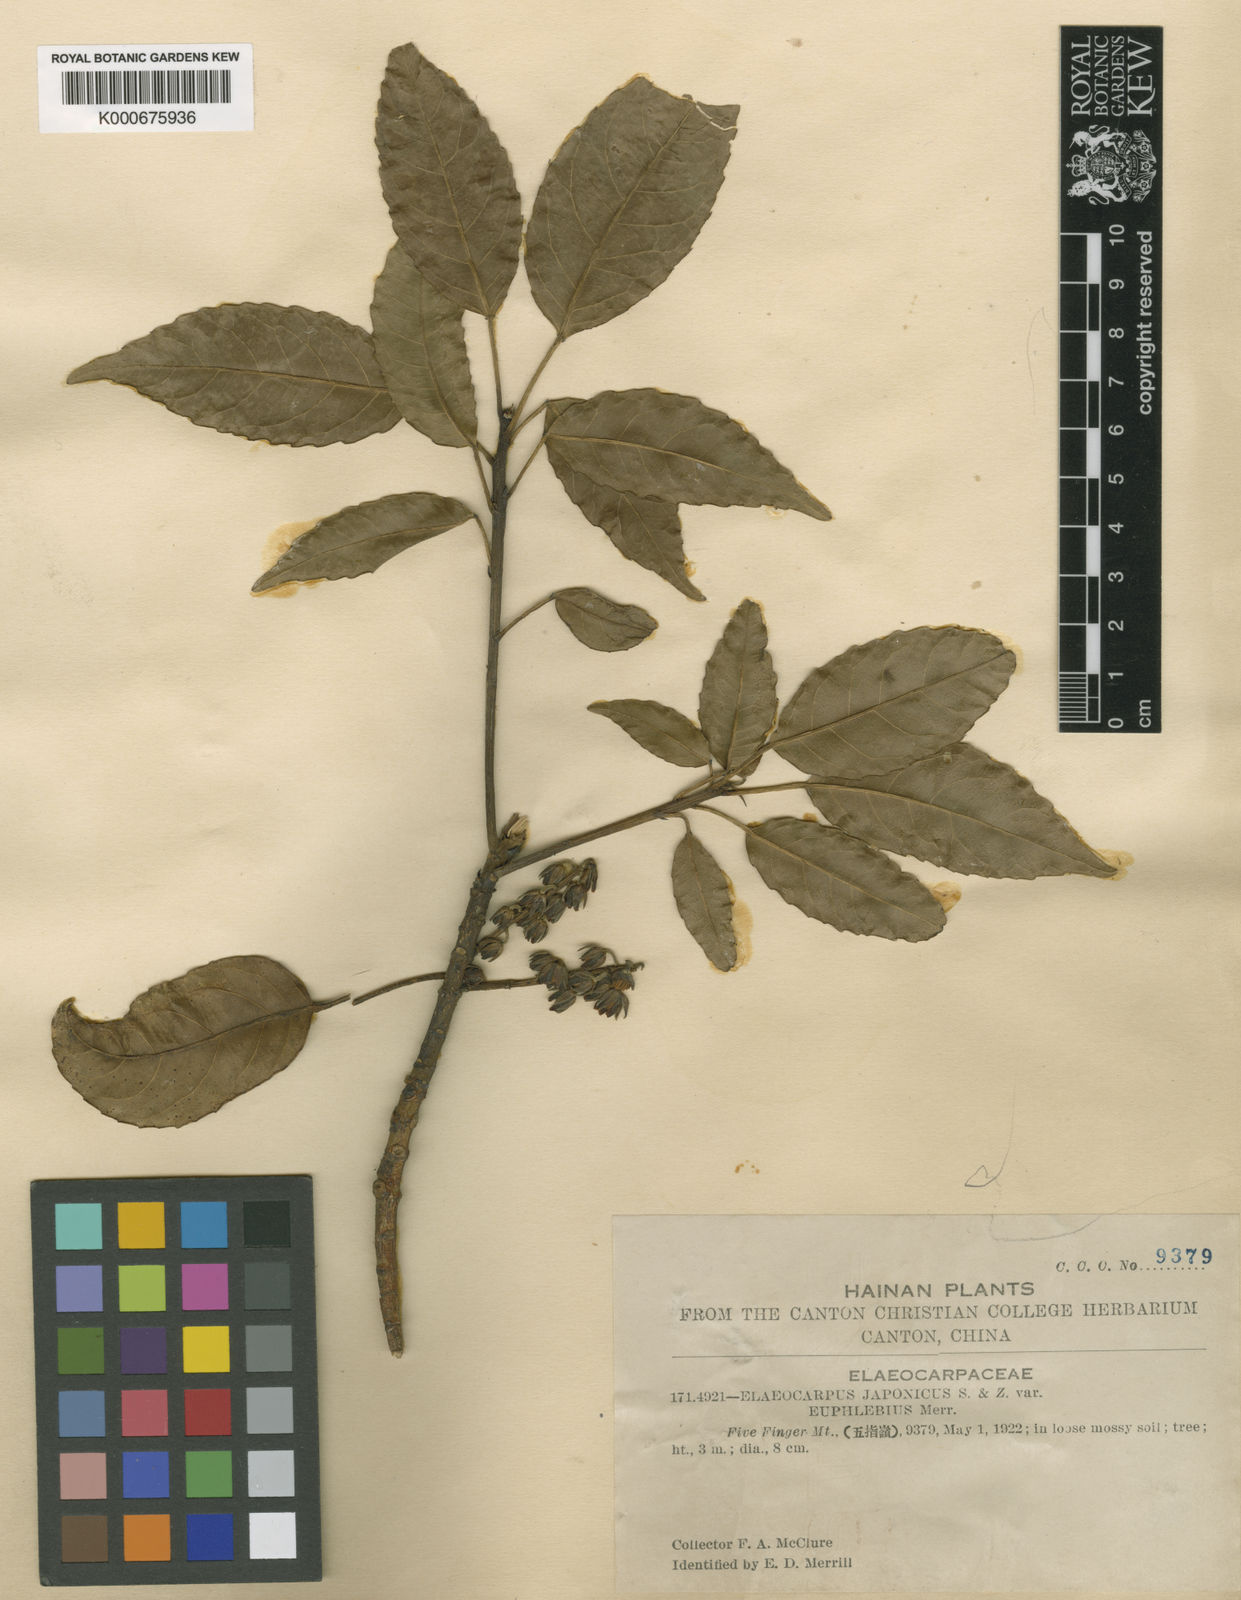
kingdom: Plantae
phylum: Tracheophyta
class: Magnoliopsida
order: Oxalidales
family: Elaeocarpaceae
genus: Elaeocarpus
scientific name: Elaeocarpus japonicus
